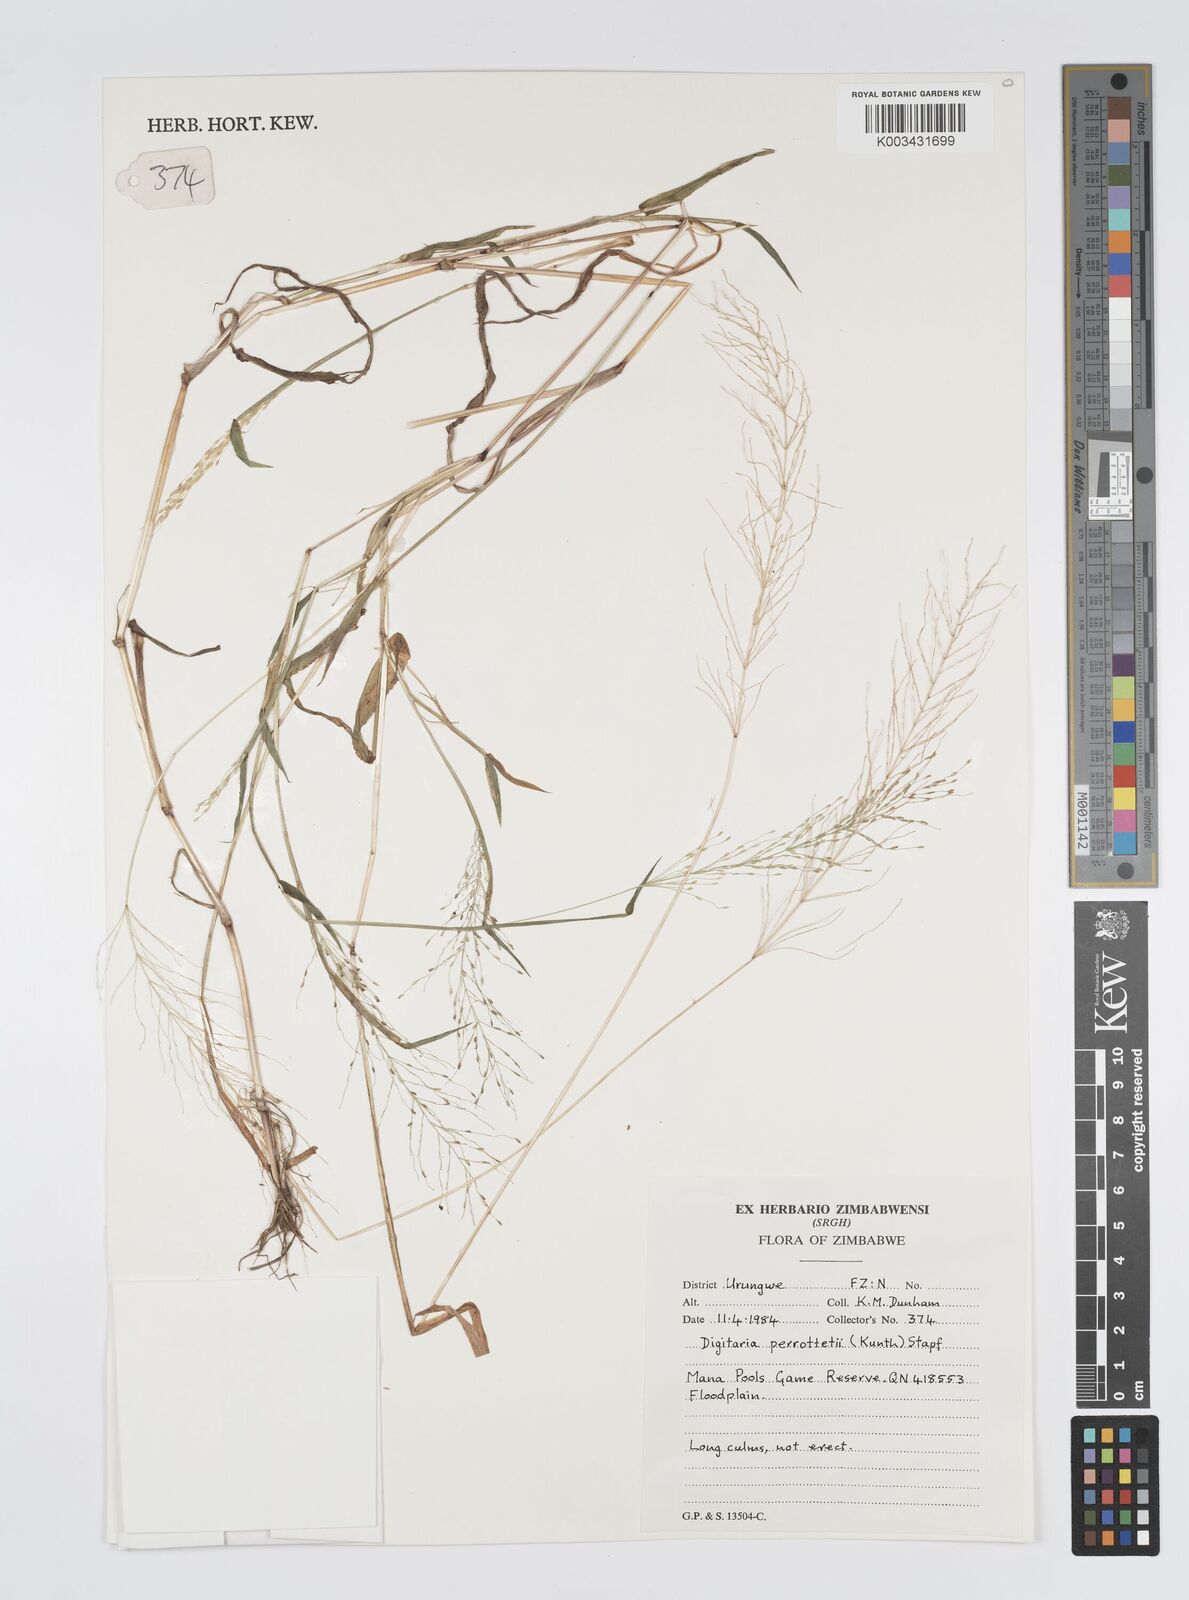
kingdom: Plantae
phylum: Tracheophyta
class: Liliopsida
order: Poales
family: Poaceae
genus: Digitaria
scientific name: Digitaria perrottetii
